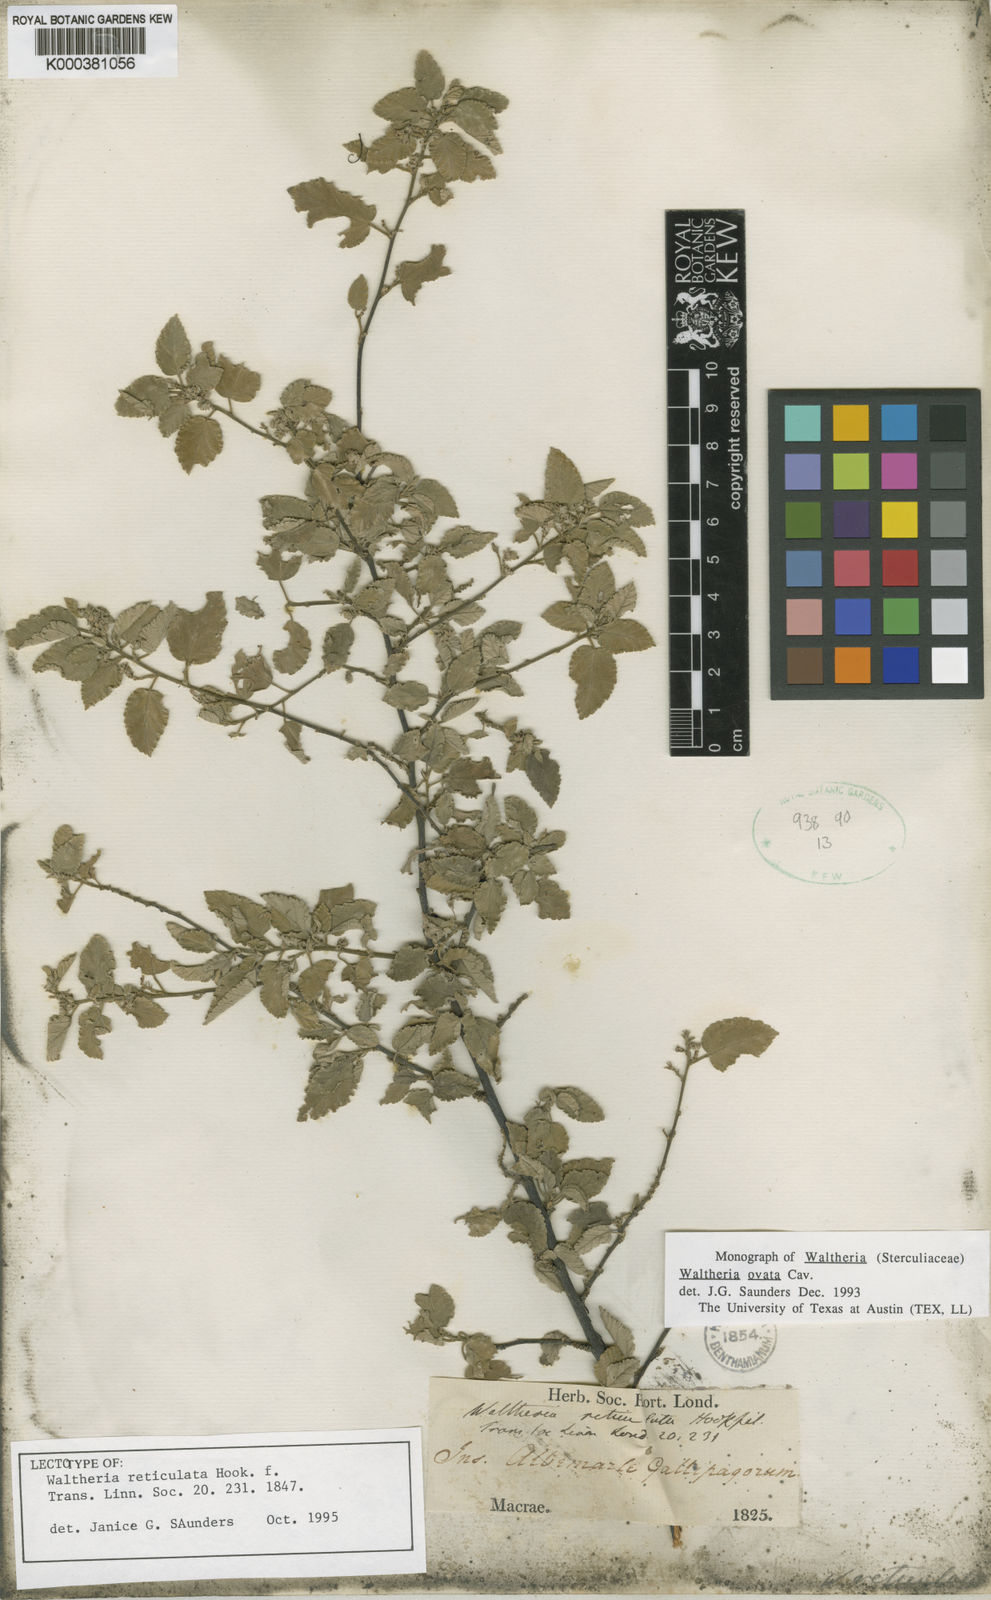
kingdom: Plantae
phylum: Tracheophyta
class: Magnoliopsida
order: Malvales
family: Malvaceae
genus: Waltheria
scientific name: Waltheria ovata
